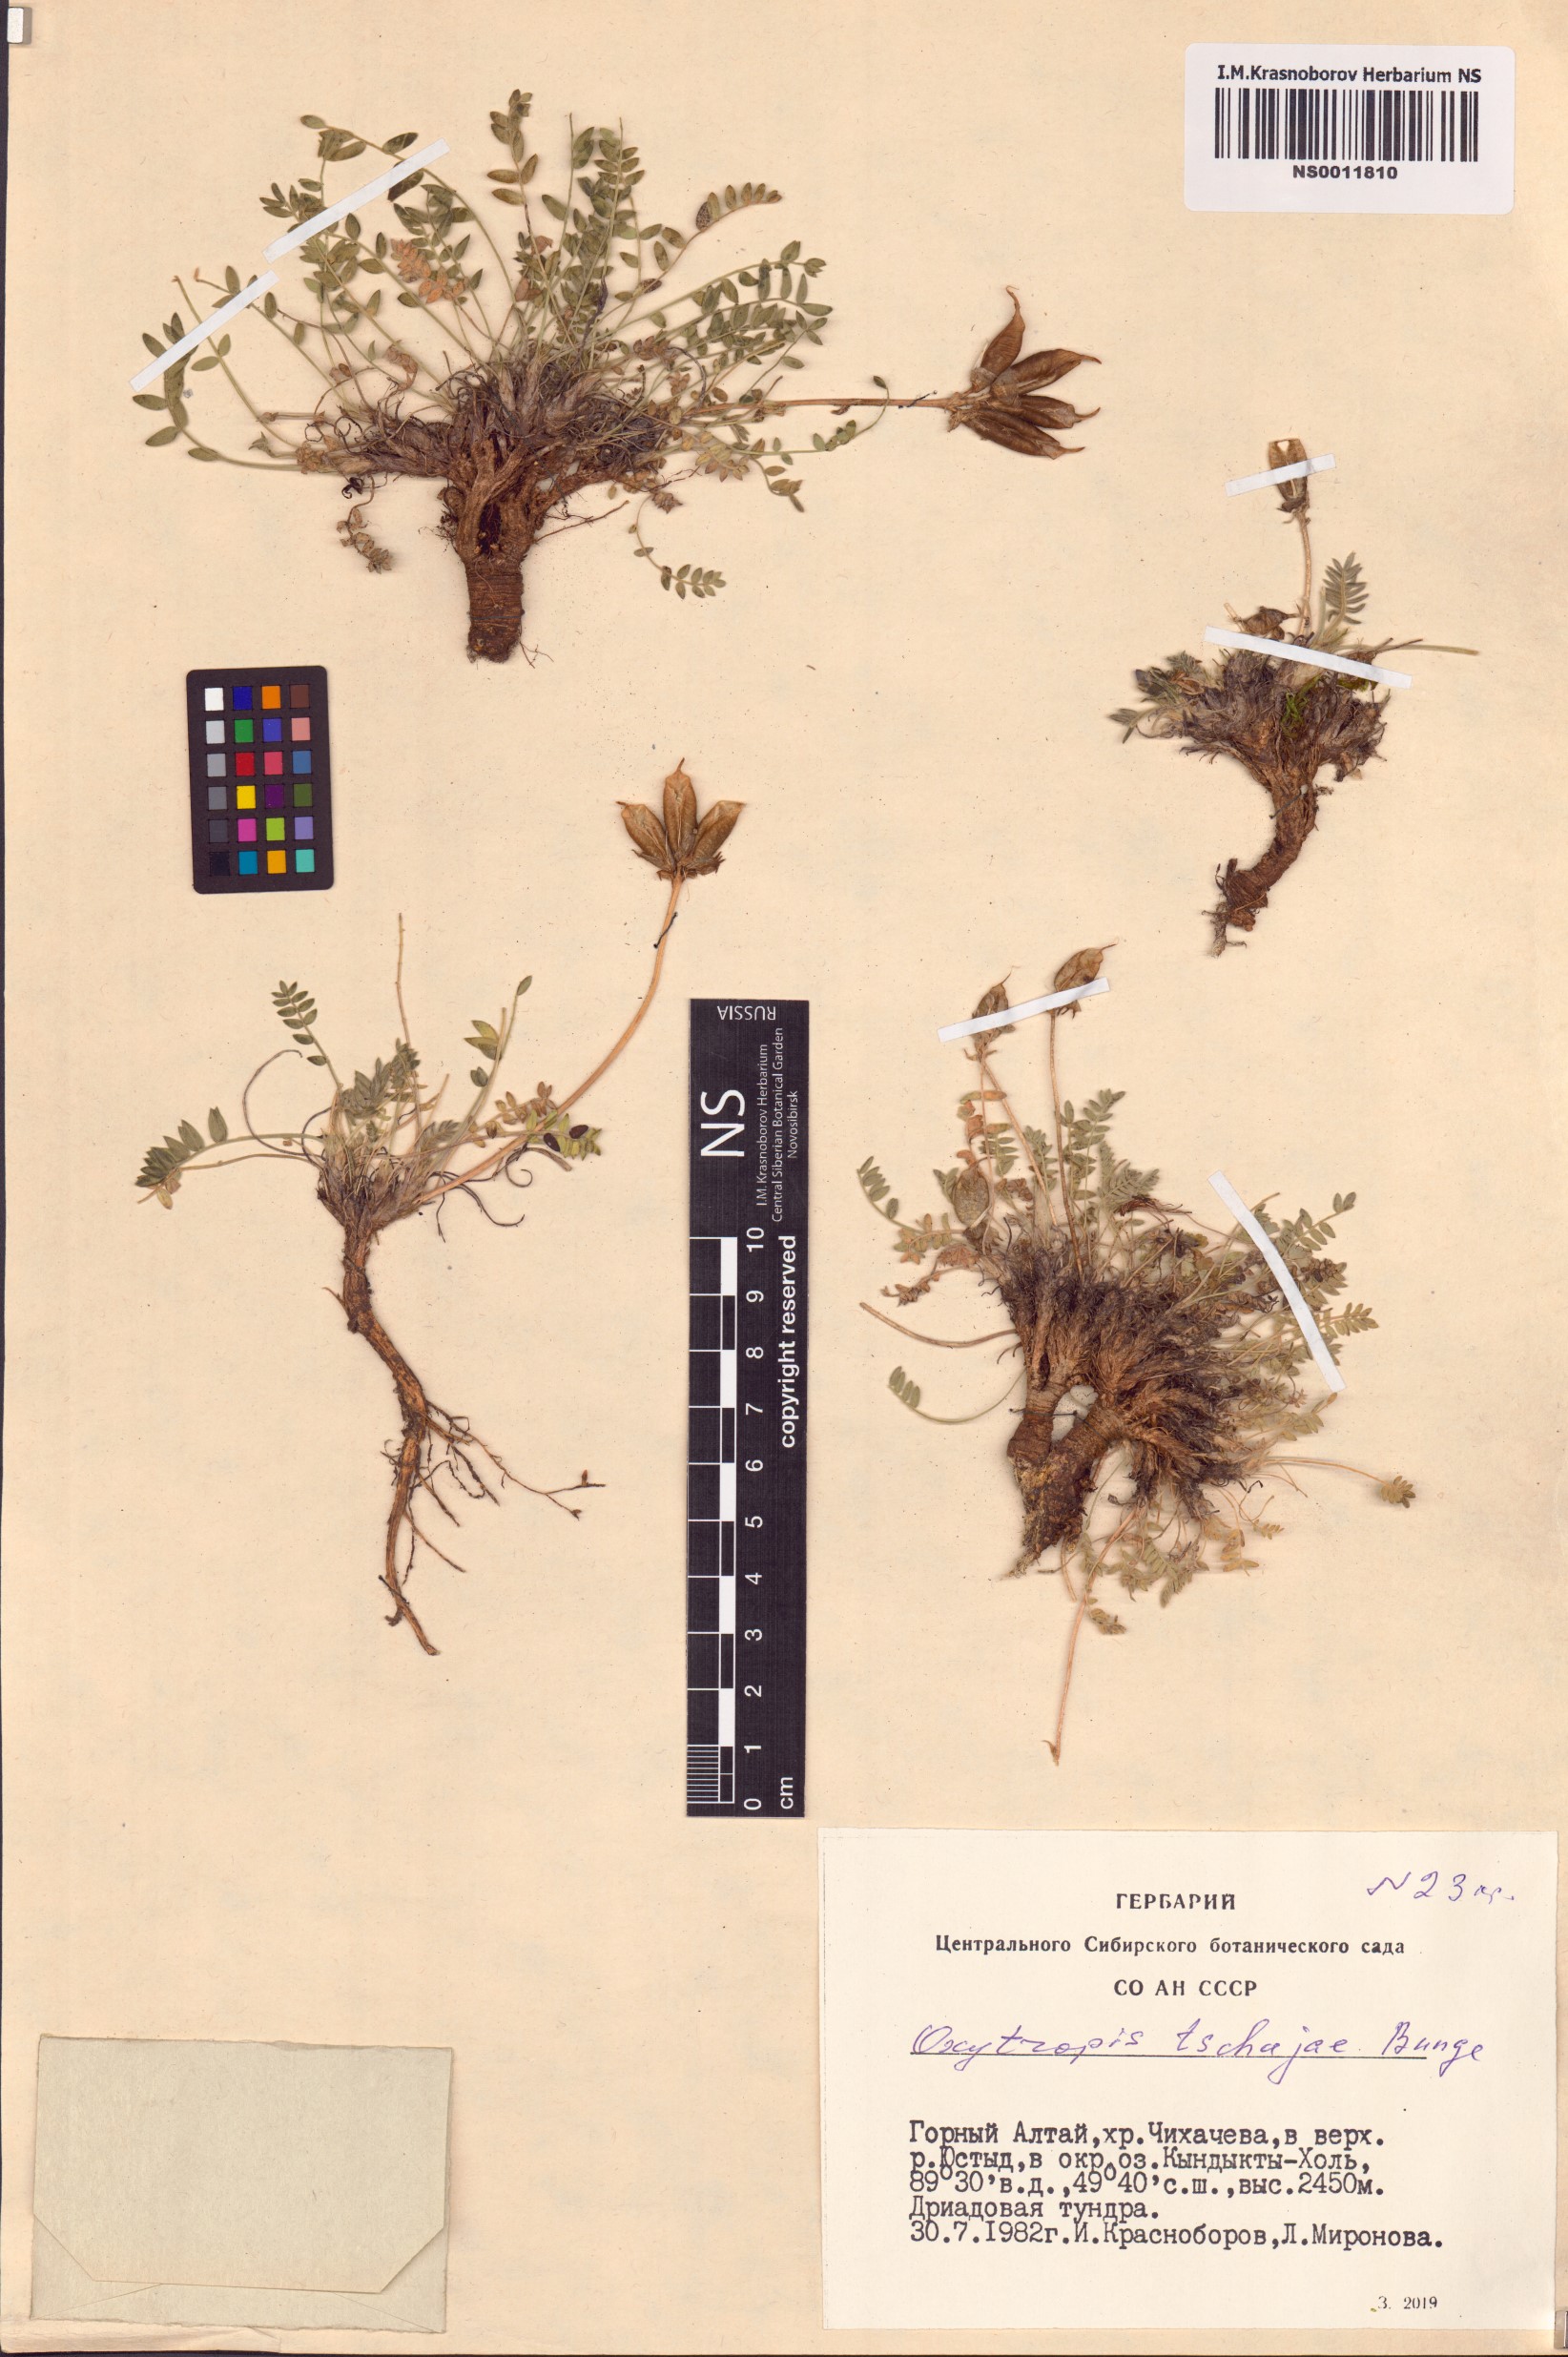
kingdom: Plantae
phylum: Tracheophyta
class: Magnoliopsida
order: Fabales
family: Fabaceae
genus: Oxytropis
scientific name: Oxytropis tschujae
